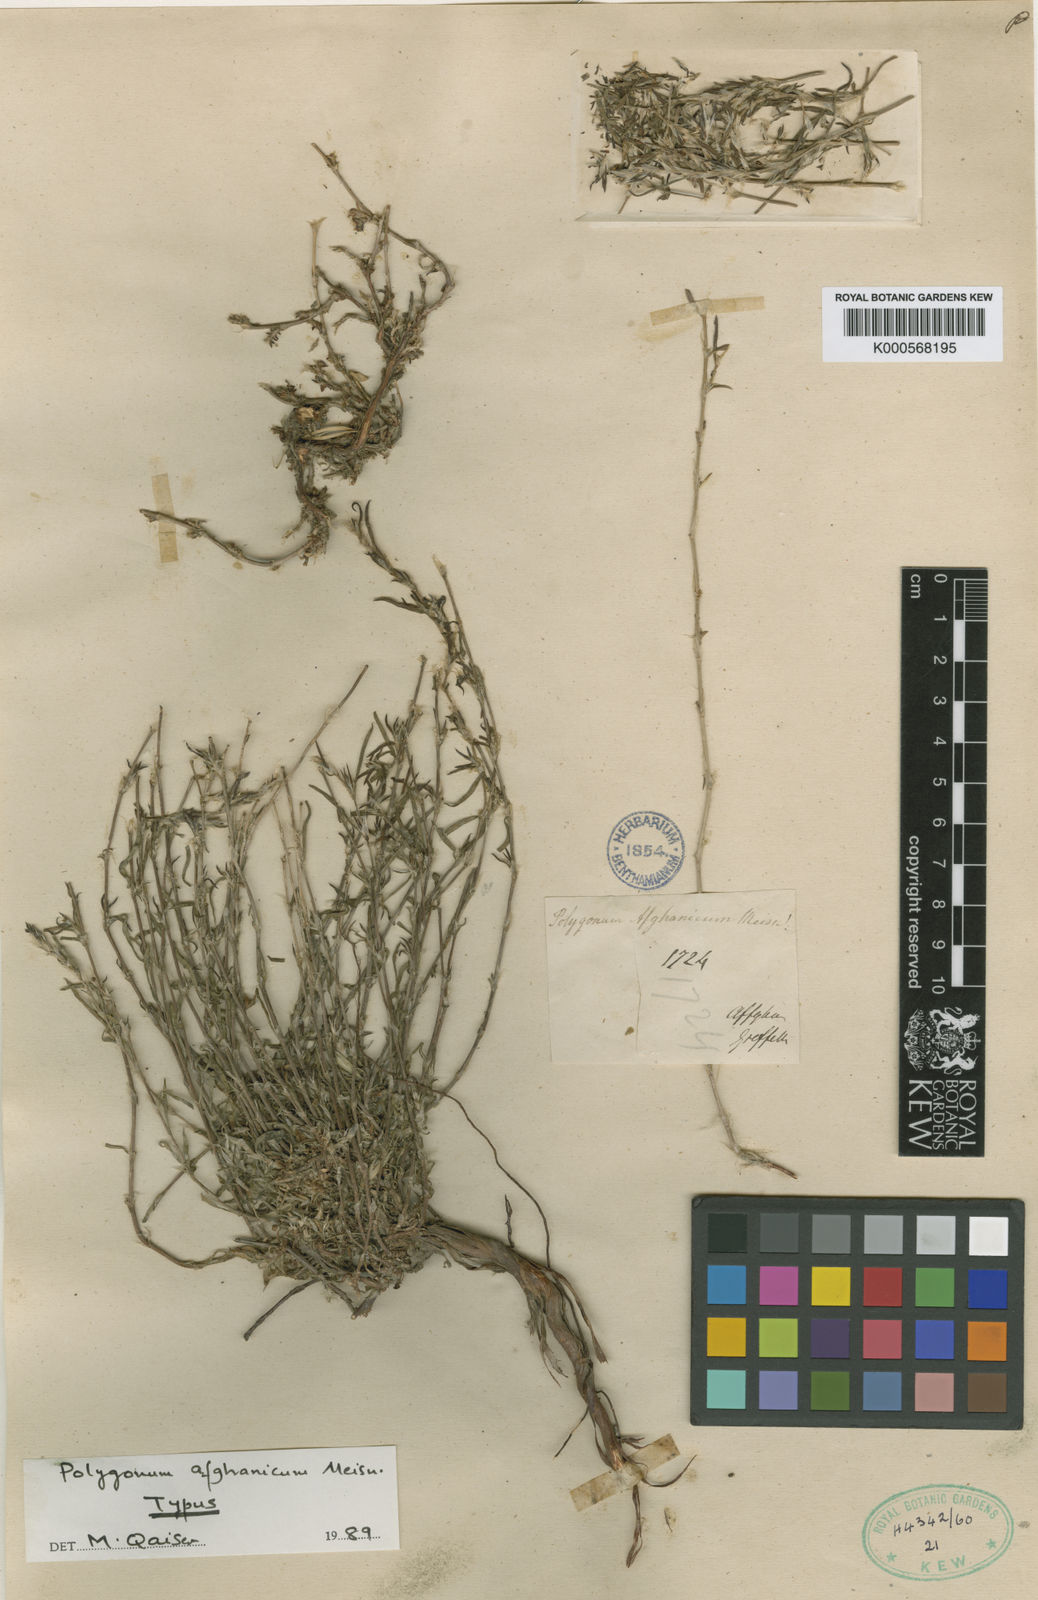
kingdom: Plantae
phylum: Tracheophyta
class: Magnoliopsida
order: Caryophyllales
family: Polygonaceae
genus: Polygonum
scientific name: Polygonum afghanicum
